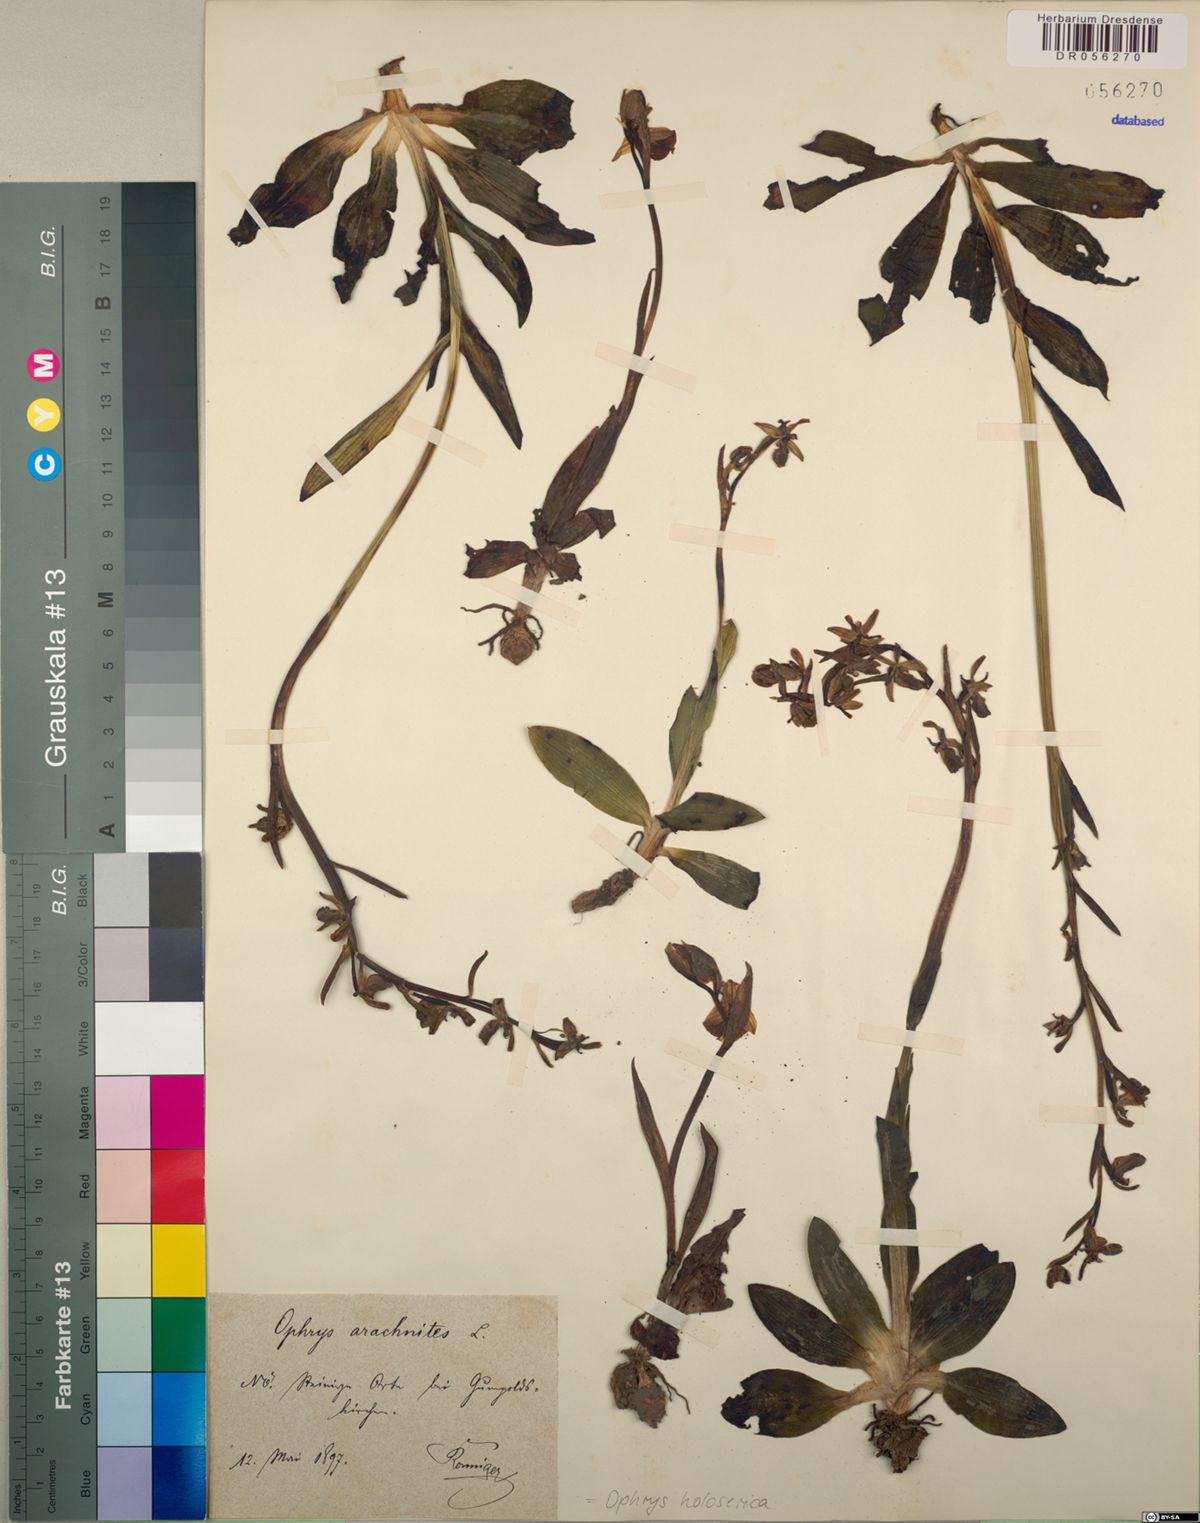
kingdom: Plantae
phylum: Tracheophyta
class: Liliopsida
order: Asparagales
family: Orchidaceae
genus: Ophrys
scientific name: Ophrys holosericea
